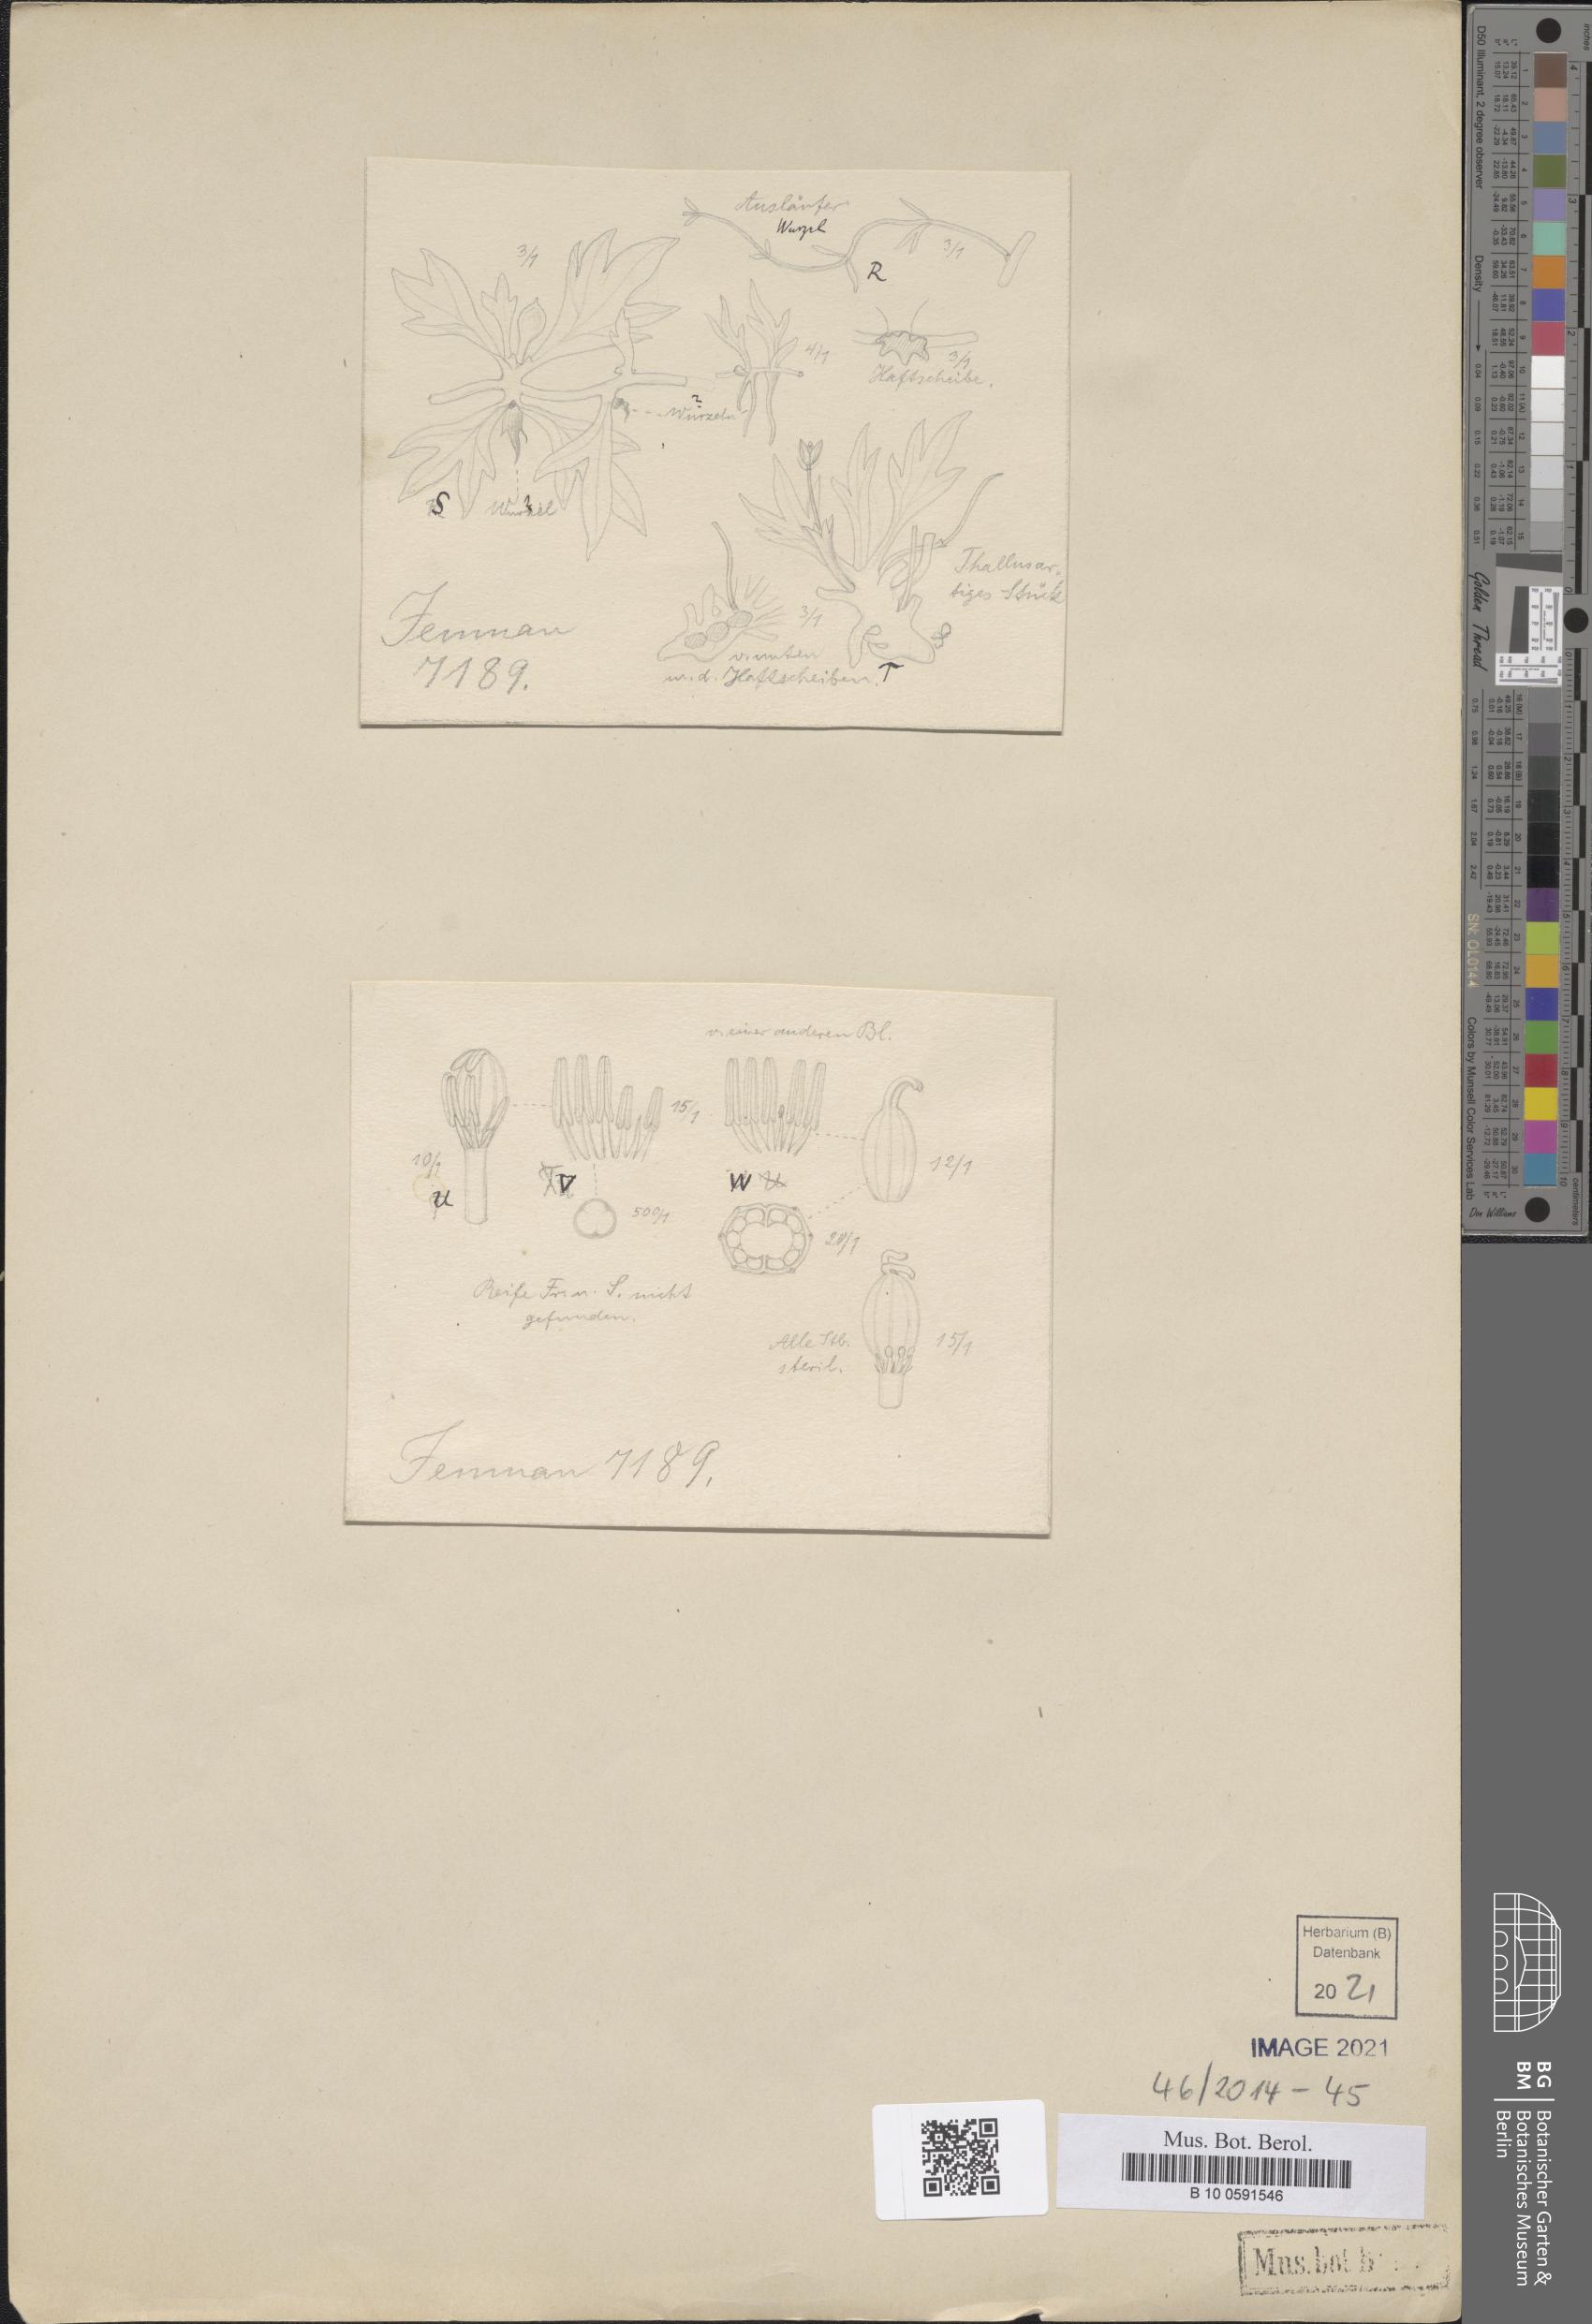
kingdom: Plantae
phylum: Tracheophyta
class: Magnoliopsida
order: Malpighiales
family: Podostemaceae
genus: Lophogyne
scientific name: Lophogyne tridactylitifolia
